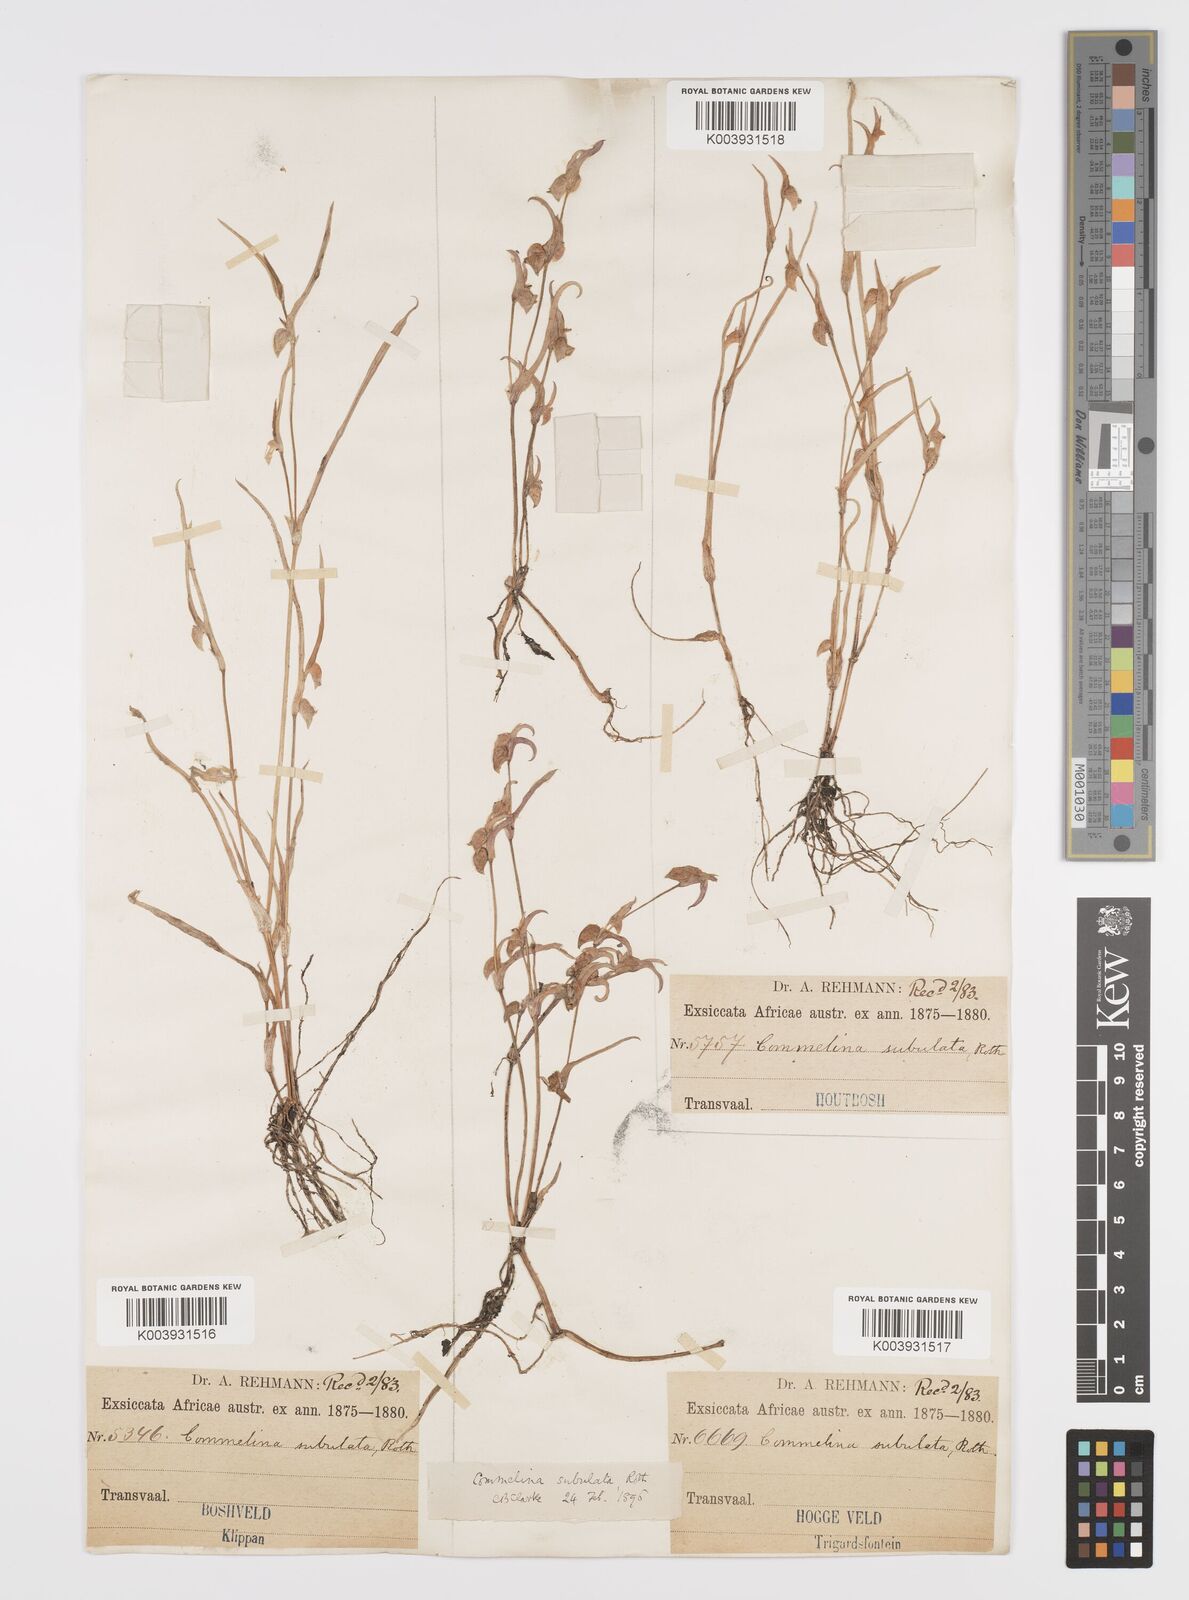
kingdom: Plantae
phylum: Tracheophyta
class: Liliopsida
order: Commelinales
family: Commelinaceae
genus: Commelina
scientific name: Commelina subulata
